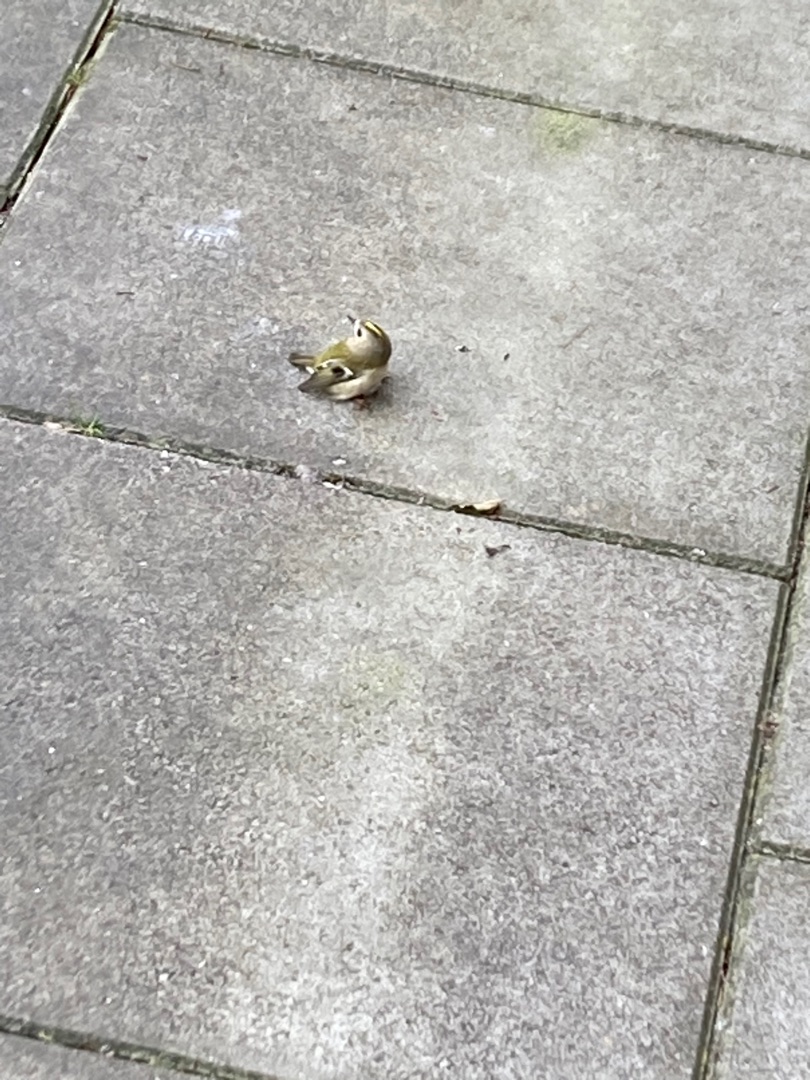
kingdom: Animalia
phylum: Chordata
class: Aves
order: Passeriformes
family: Regulidae
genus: Regulus
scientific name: Regulus regulus
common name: Fuglekonge
